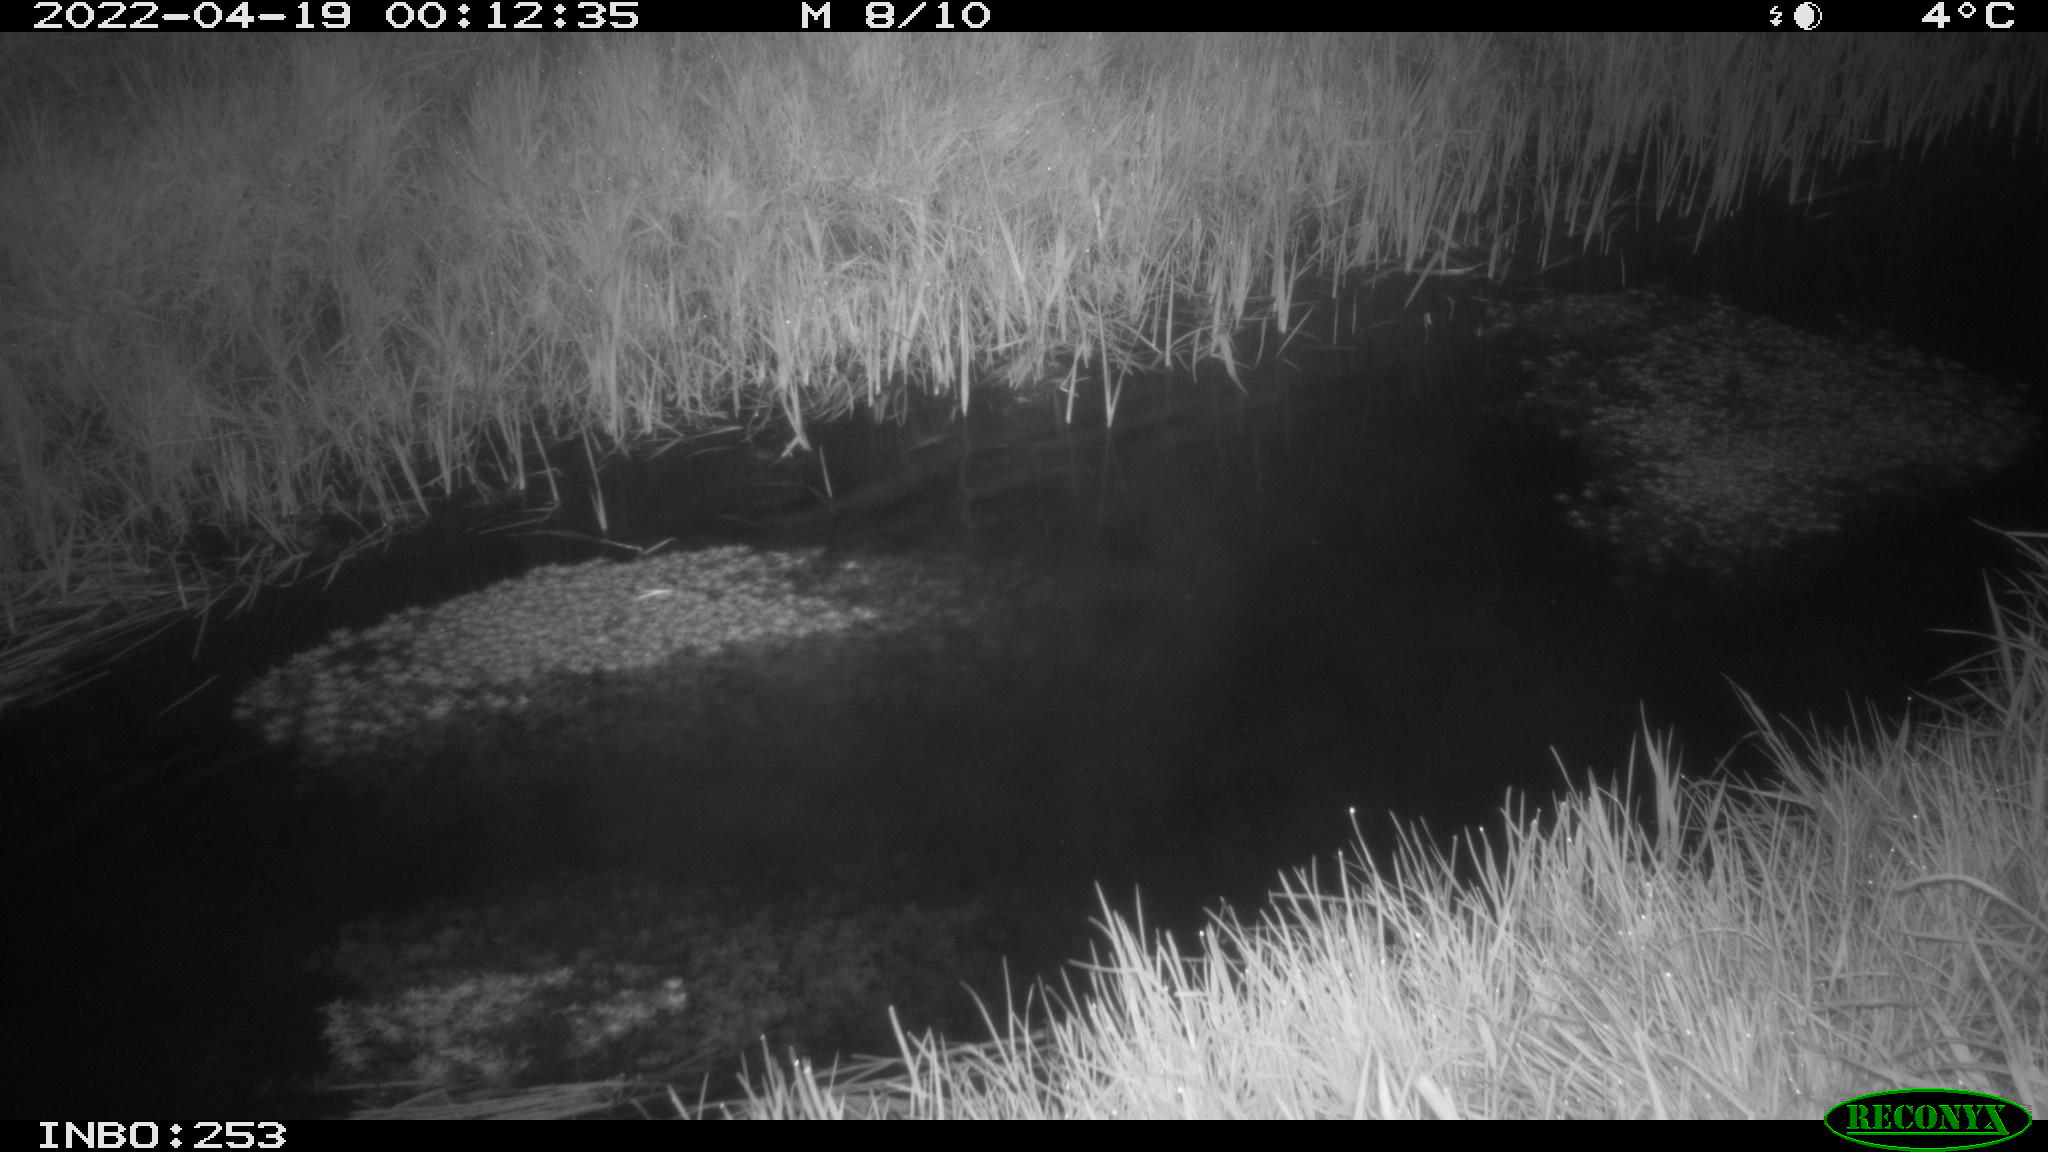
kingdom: Animalia
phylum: Chordata
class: Aves
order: Anseriformes
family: Anatidae
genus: Anas
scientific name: Anas platyrhynchos
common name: Mallard
